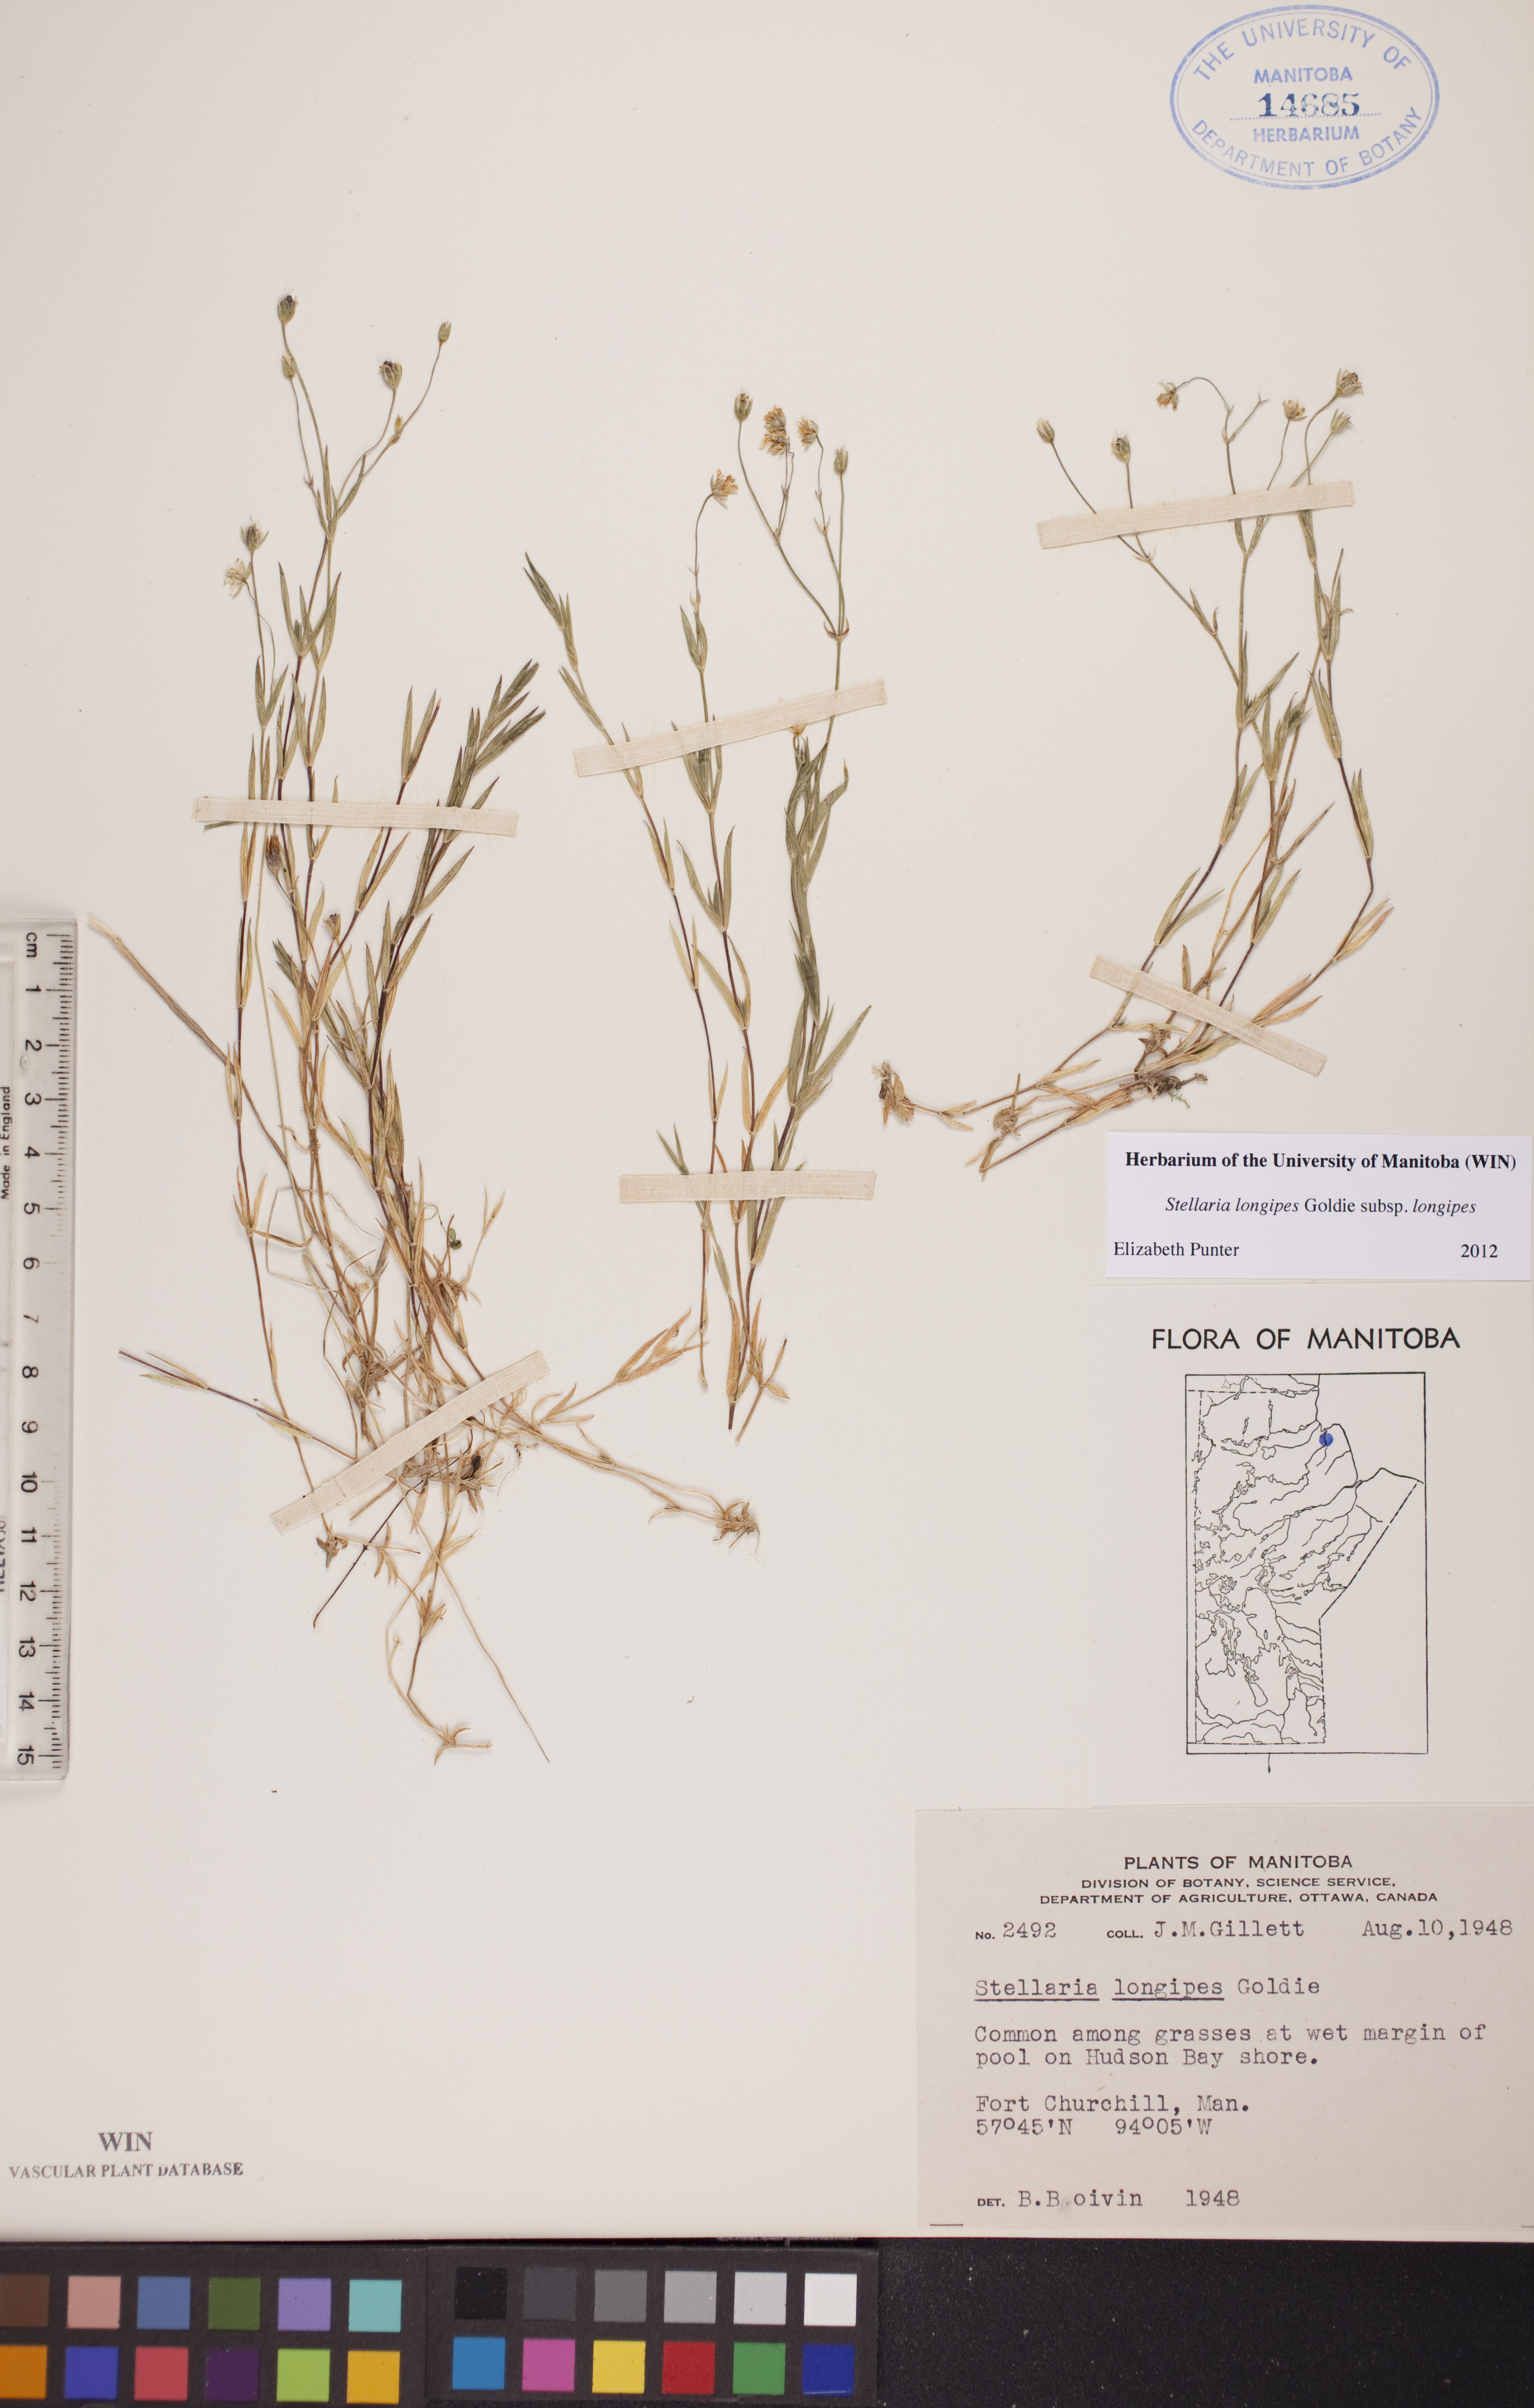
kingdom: Plantae
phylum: Tracheophyta
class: Magnoliopsida
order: Caryophyllales
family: Caryophyllaceae
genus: Stellaria
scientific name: Stellaria longipes
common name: Goldie's starwort
